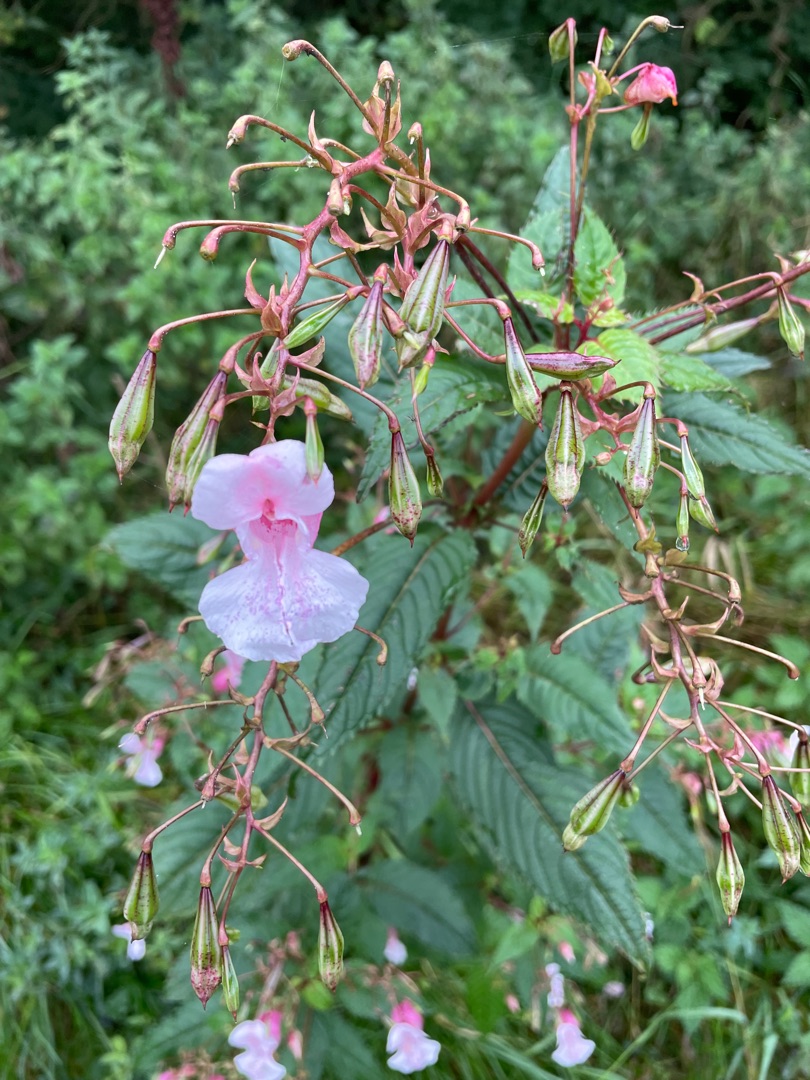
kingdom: Plantae
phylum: Tracheophyta
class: Magnoliopsida
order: Ericales
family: Balsaminaceae
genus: Impatiens
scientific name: Impatiens glandulifera
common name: Kæmpe-balsamin
